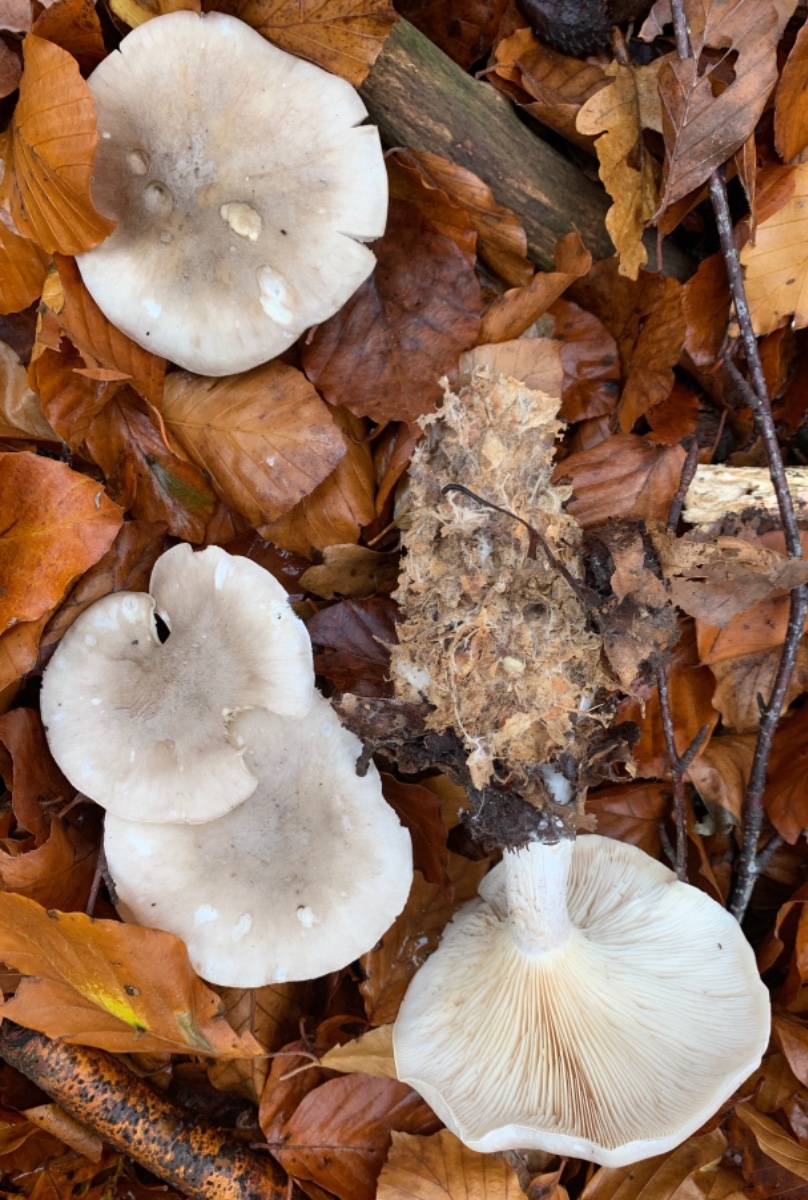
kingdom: Fungi
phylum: Basidiomycota
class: Agaricomycetes
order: Agaricales
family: Tricholomataceae
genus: Clitocybe
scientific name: Clitocybe nebularis
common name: tåge-tragthat
